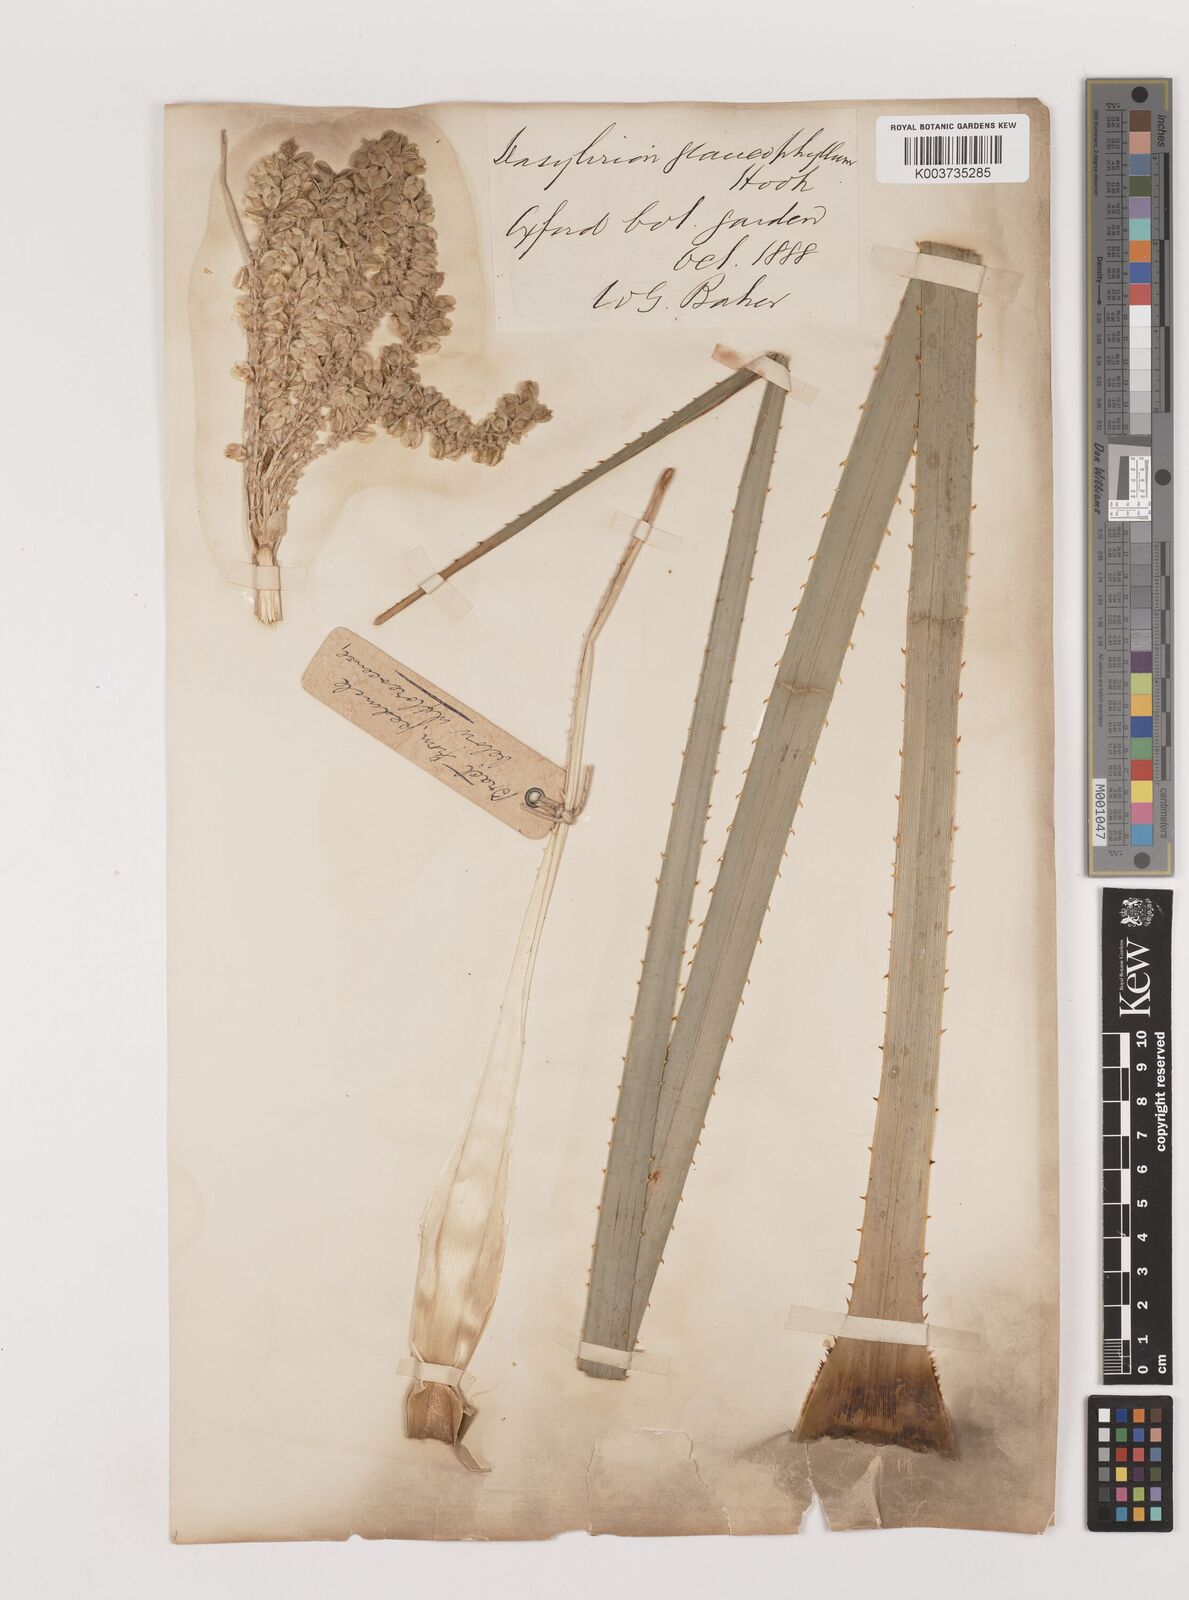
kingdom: Plantae
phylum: Tracheophyta
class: Liliopsida
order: Asparagales
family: Asparagaceae
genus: Dasylirion
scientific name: Dasylirion glaucophyllum
